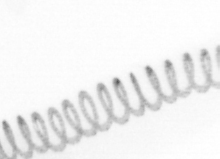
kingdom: Chromista
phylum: Ochrophyta
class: Bacillariophyceae
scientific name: Bacillariophyceae
